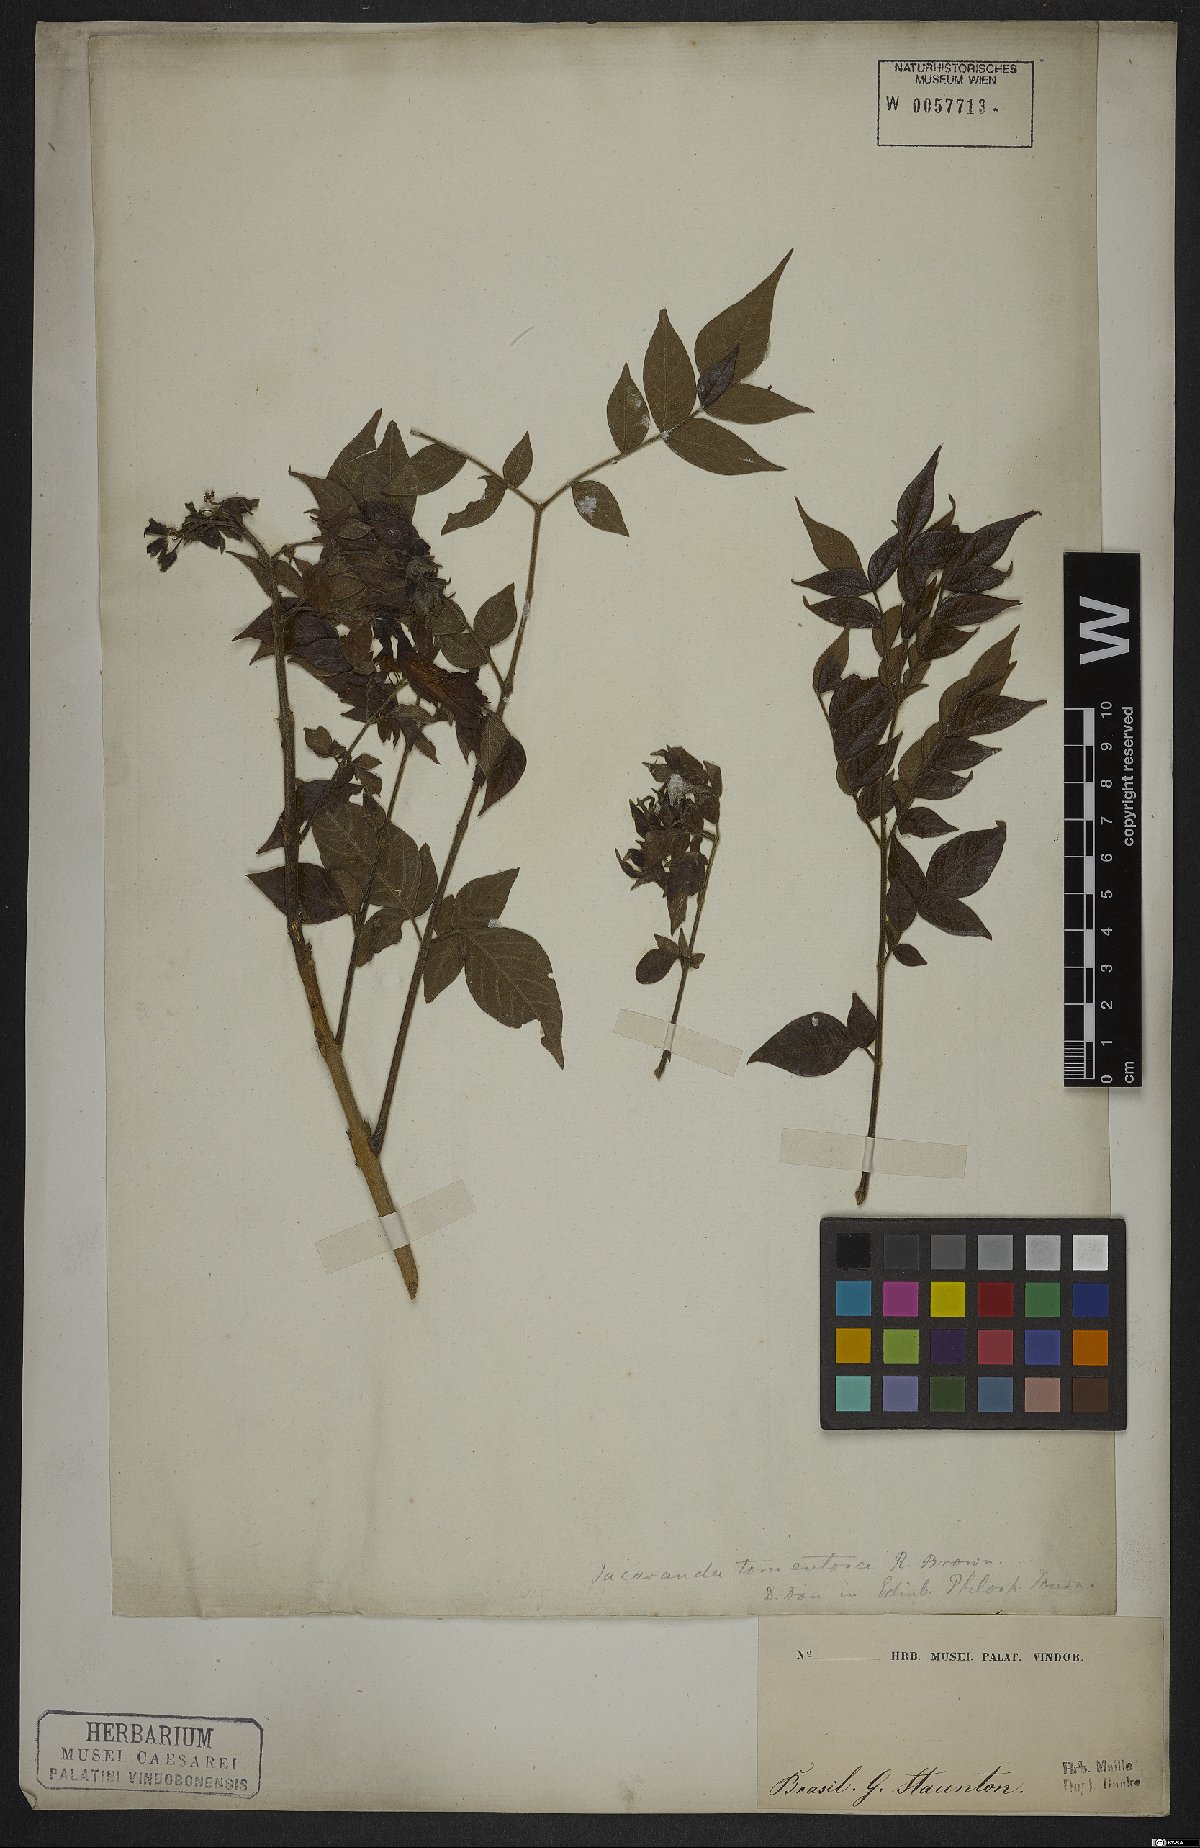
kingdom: Plantae
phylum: Tracheophyta
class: Magnoliopsida
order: Lamiales
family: Bignoniaceae
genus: Jacaranda
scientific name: Jacaranda jasminoides
